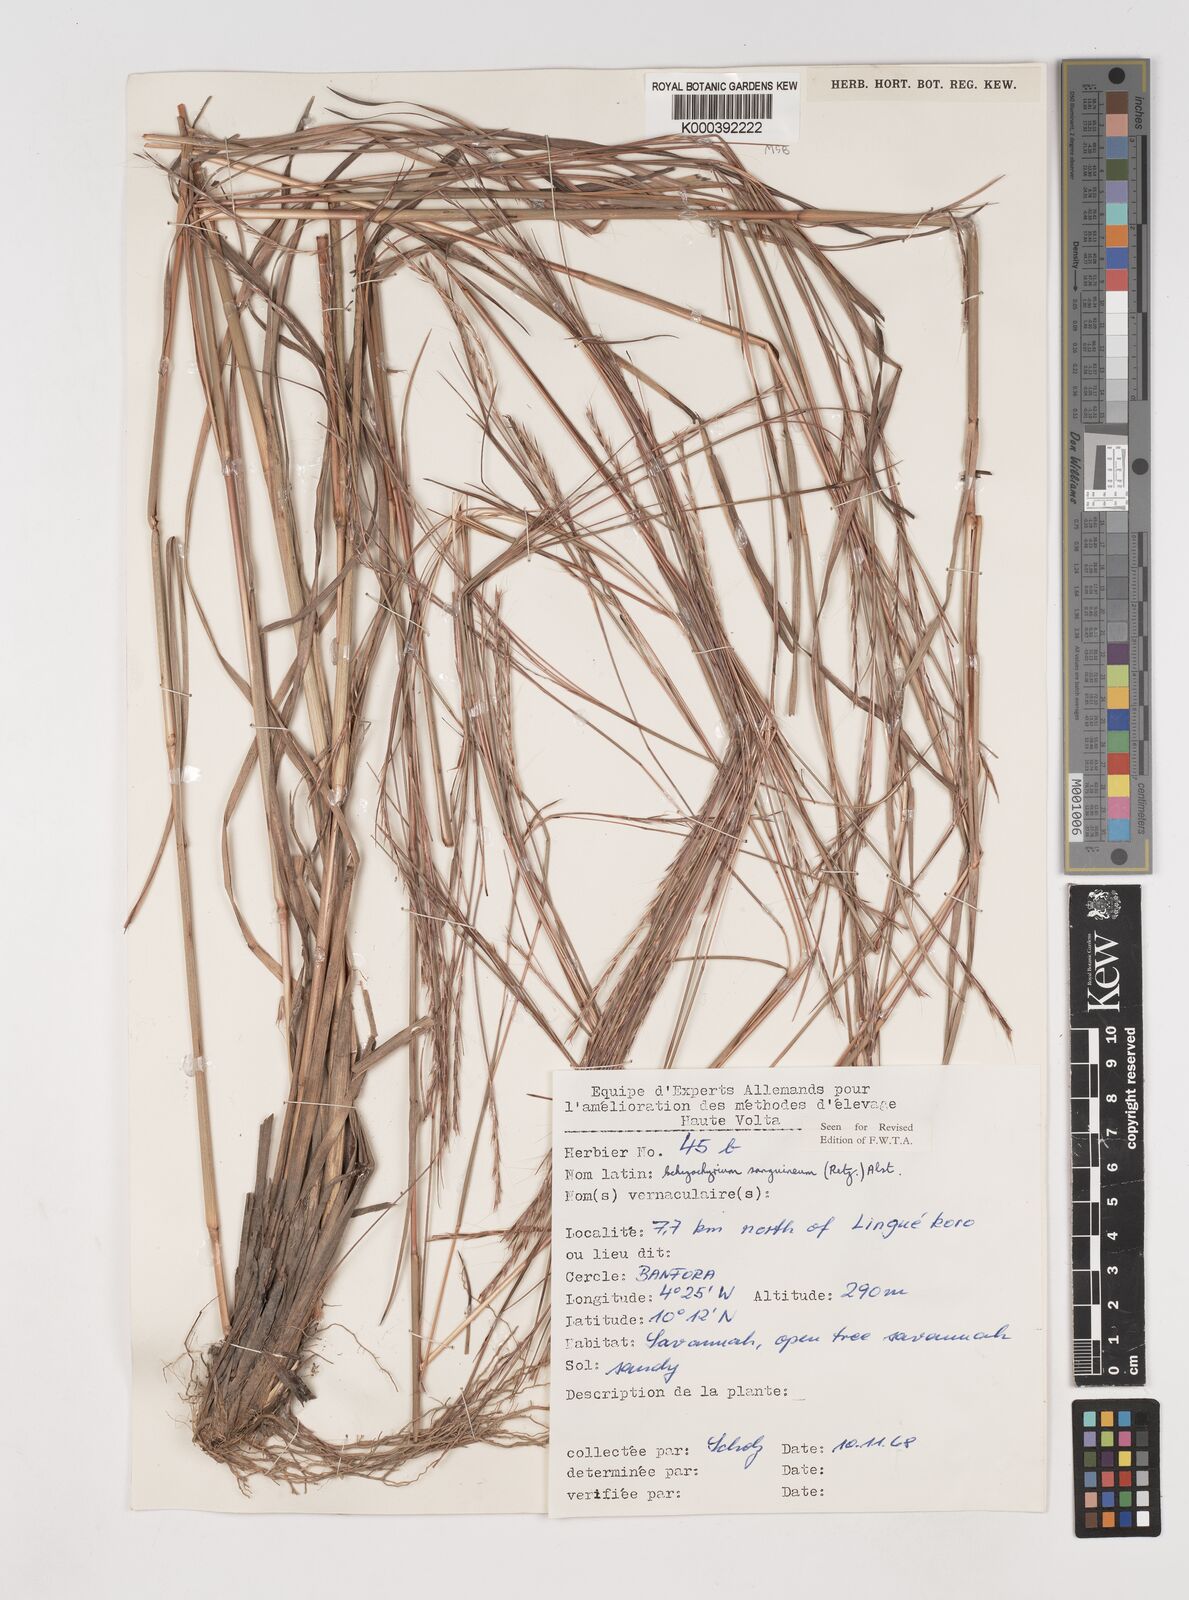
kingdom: Plantae
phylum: Tracheophyta
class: Liliopsida
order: Poales
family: Poaceae
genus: Schizachyrium
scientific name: Schizachyrium sanguineum
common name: Crimson bluestem
